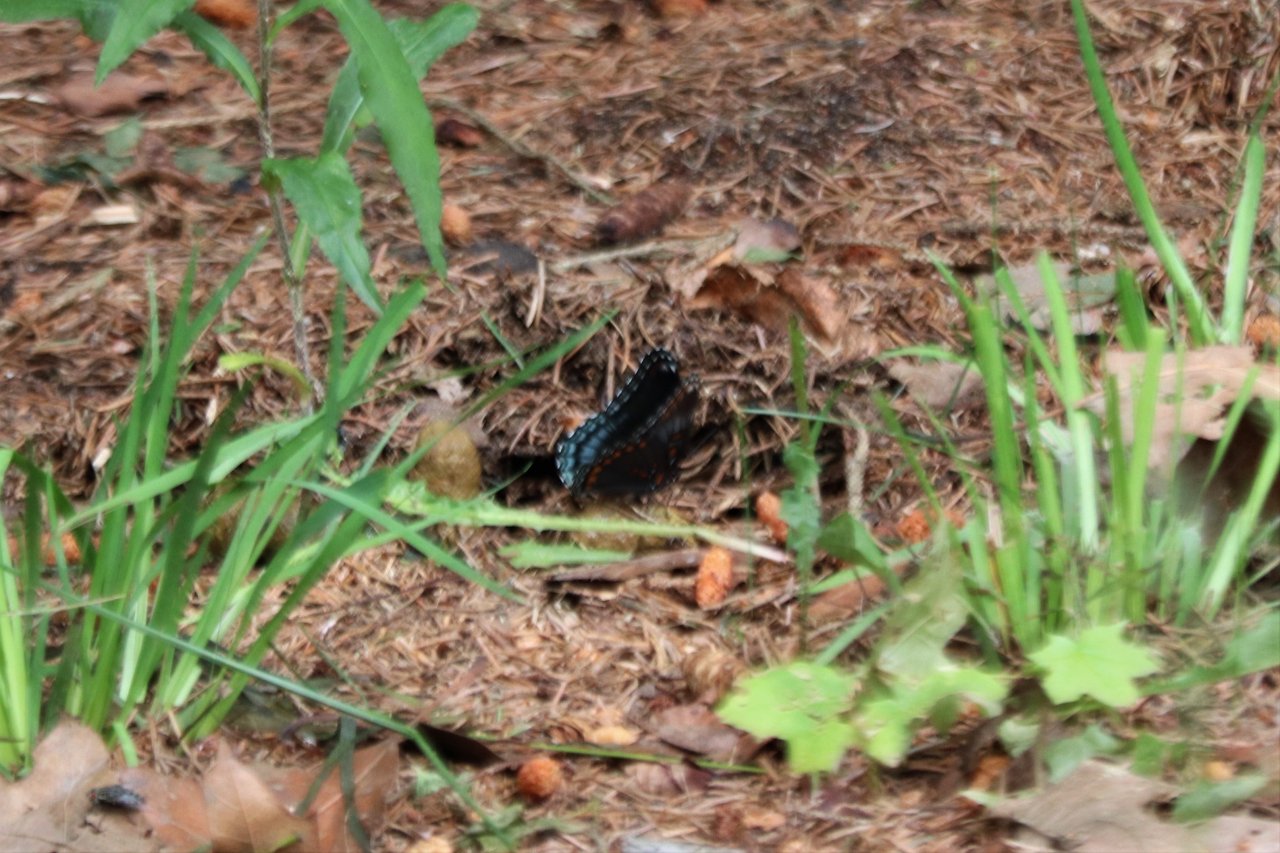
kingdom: Animalia
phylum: Arthropoda
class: Insecta
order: Lepidoptera
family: Nymphalidae
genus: Limenitis
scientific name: Limenitis astyanax
